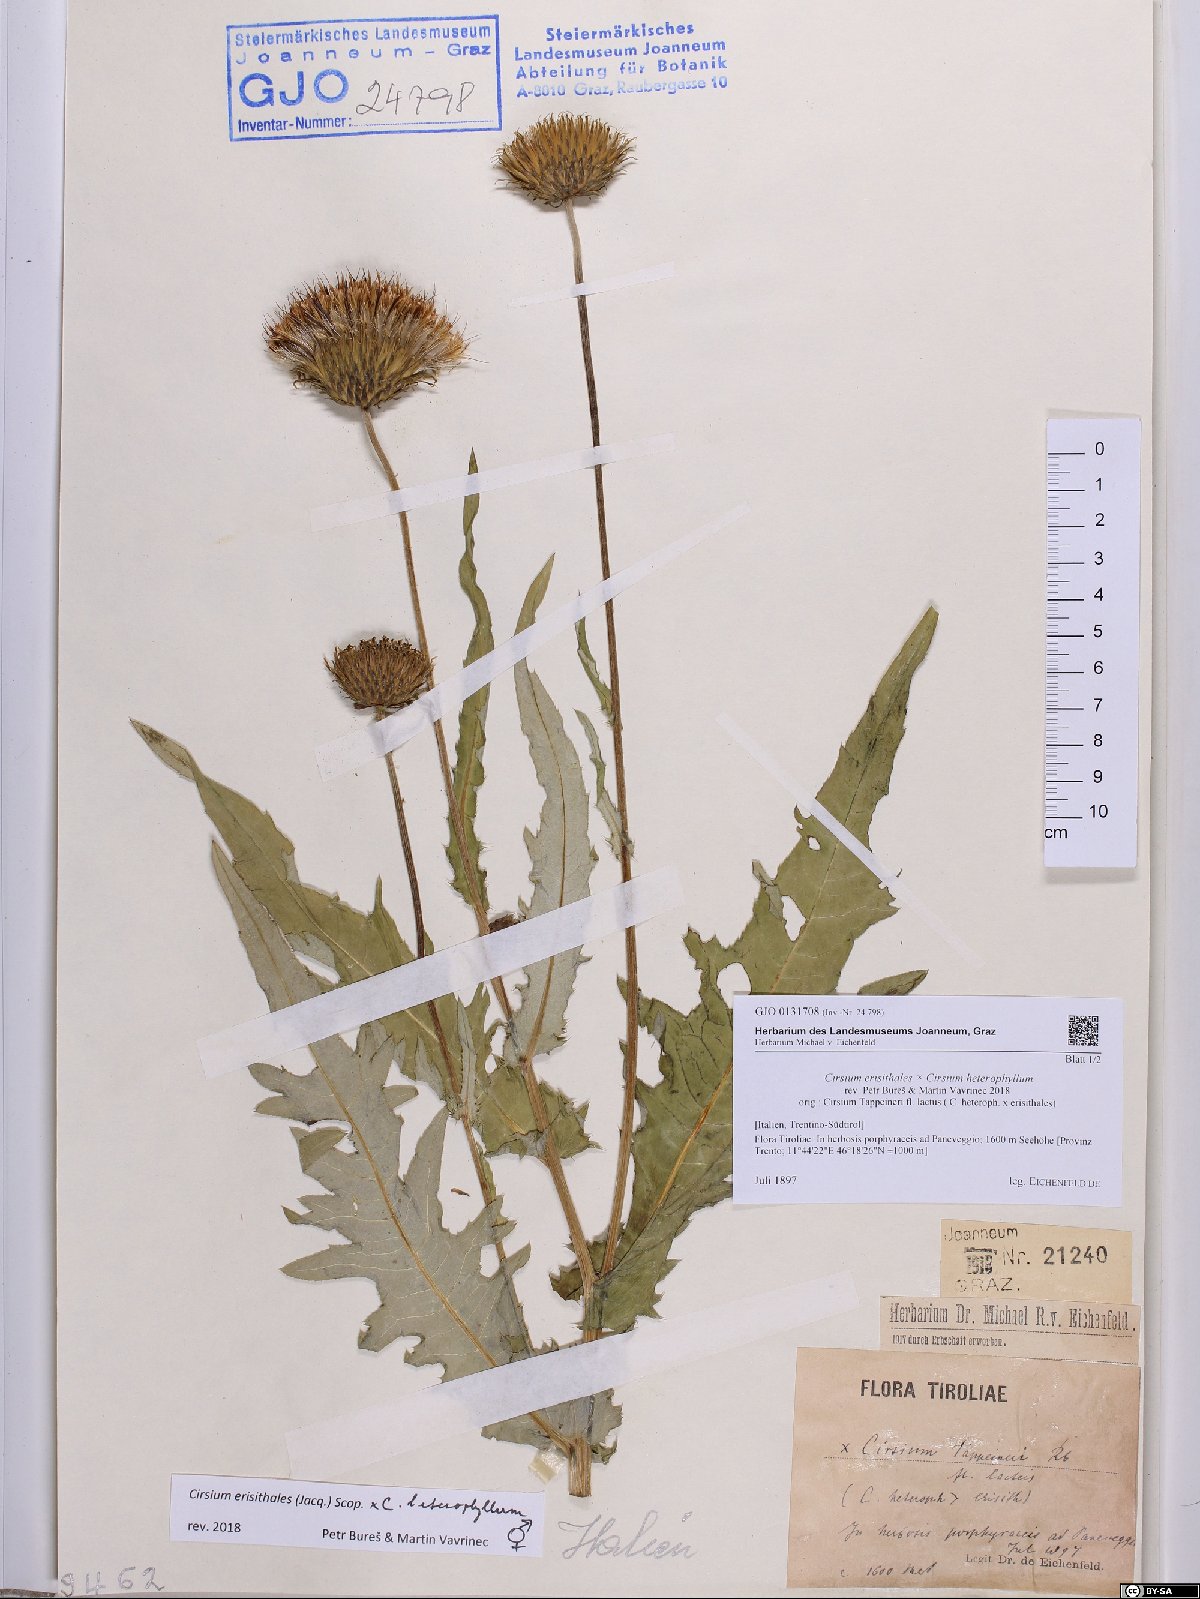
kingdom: Plantae
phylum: Tracheophyta
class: Magnoliopsida
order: Asterales
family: Asteraceae
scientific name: Asteraceae
